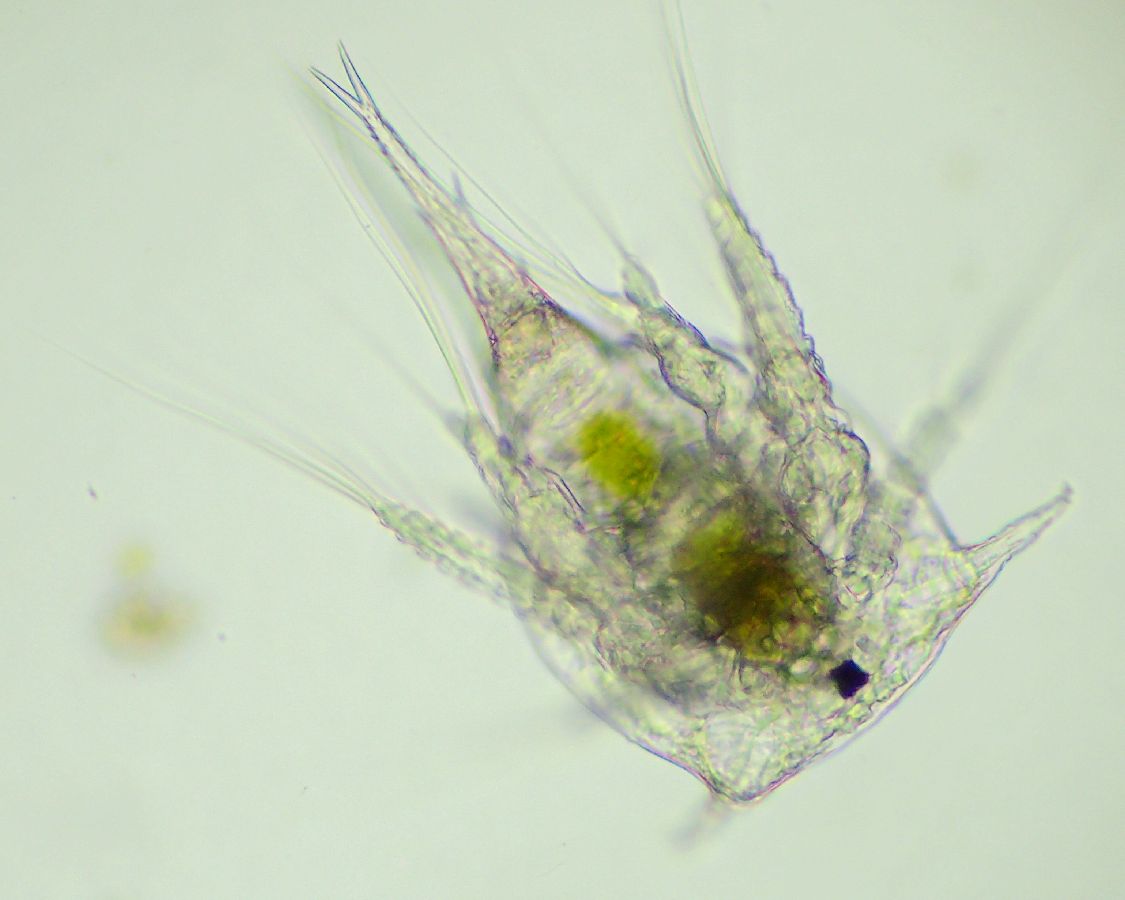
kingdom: Animalia
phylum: Arthropoda
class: Maxillopoda
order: Sessilia
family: Archaeobalanidae
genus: Semibalanus
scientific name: Semibalanus balanoides
